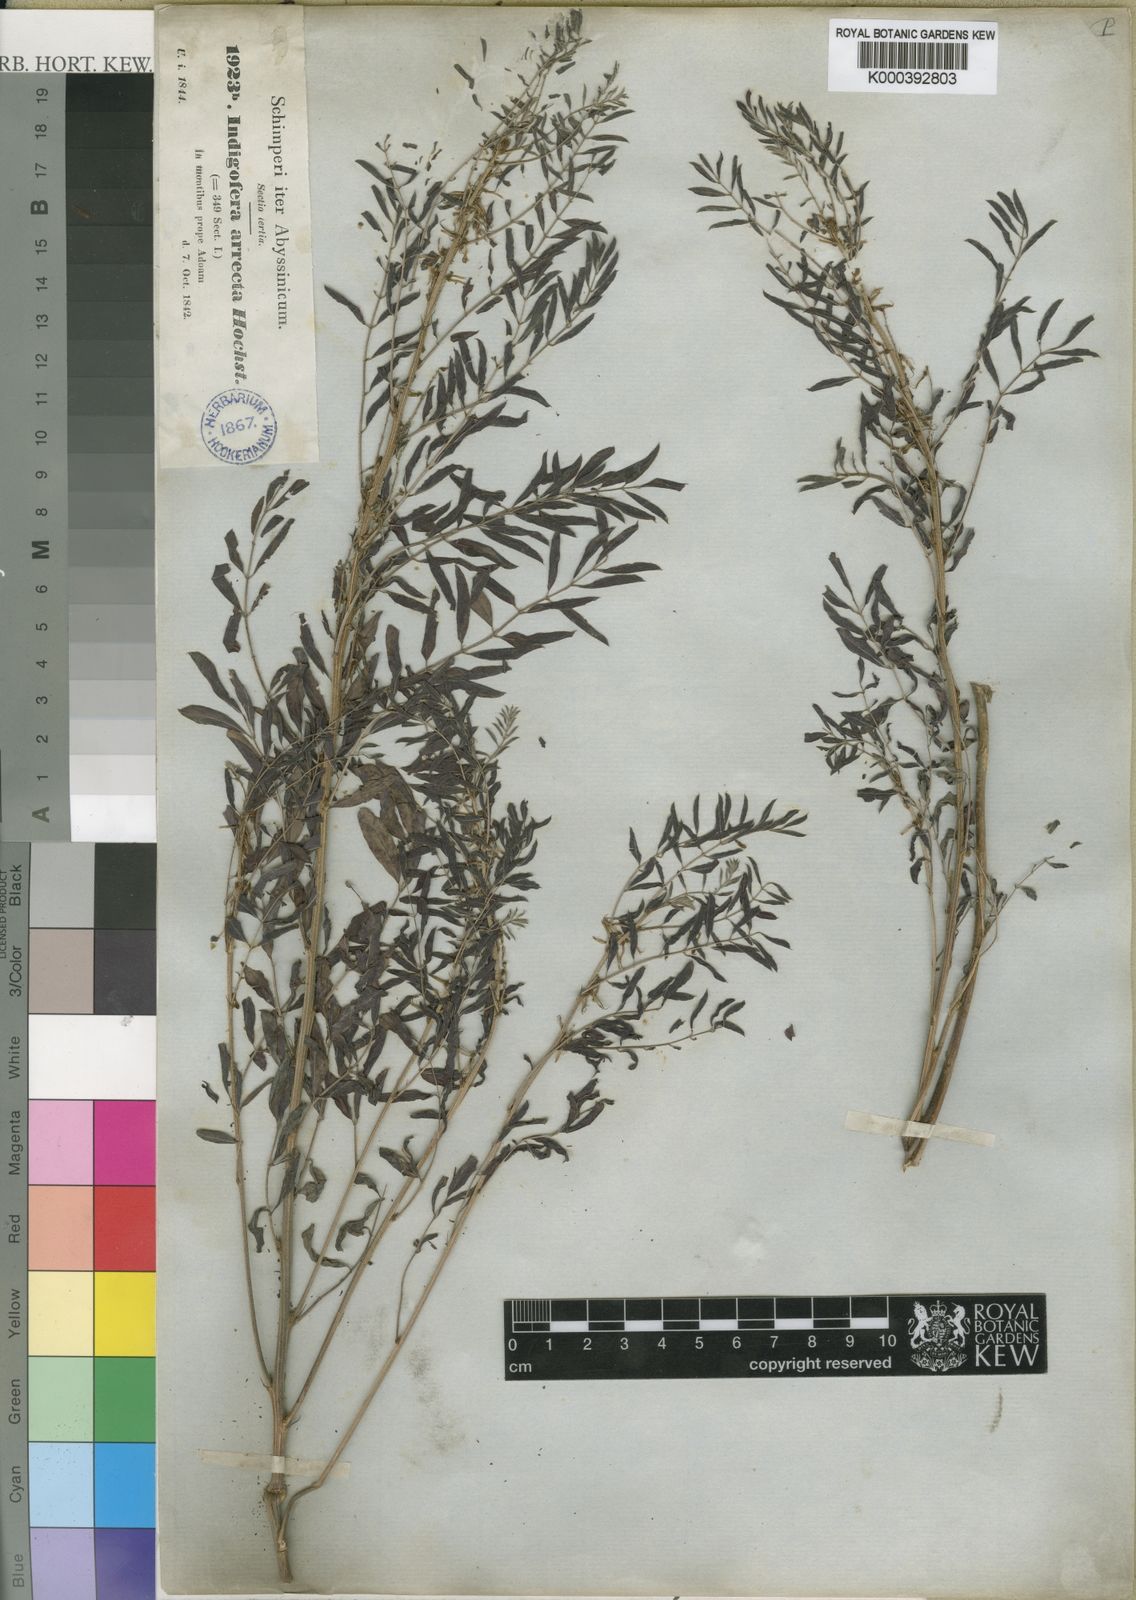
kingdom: Plantae
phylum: Tracheophyta
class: Magnoliopsida
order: Fabales
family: Fabaceae
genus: Indigofera
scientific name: Indigofera arrecta
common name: Bengal indigo
